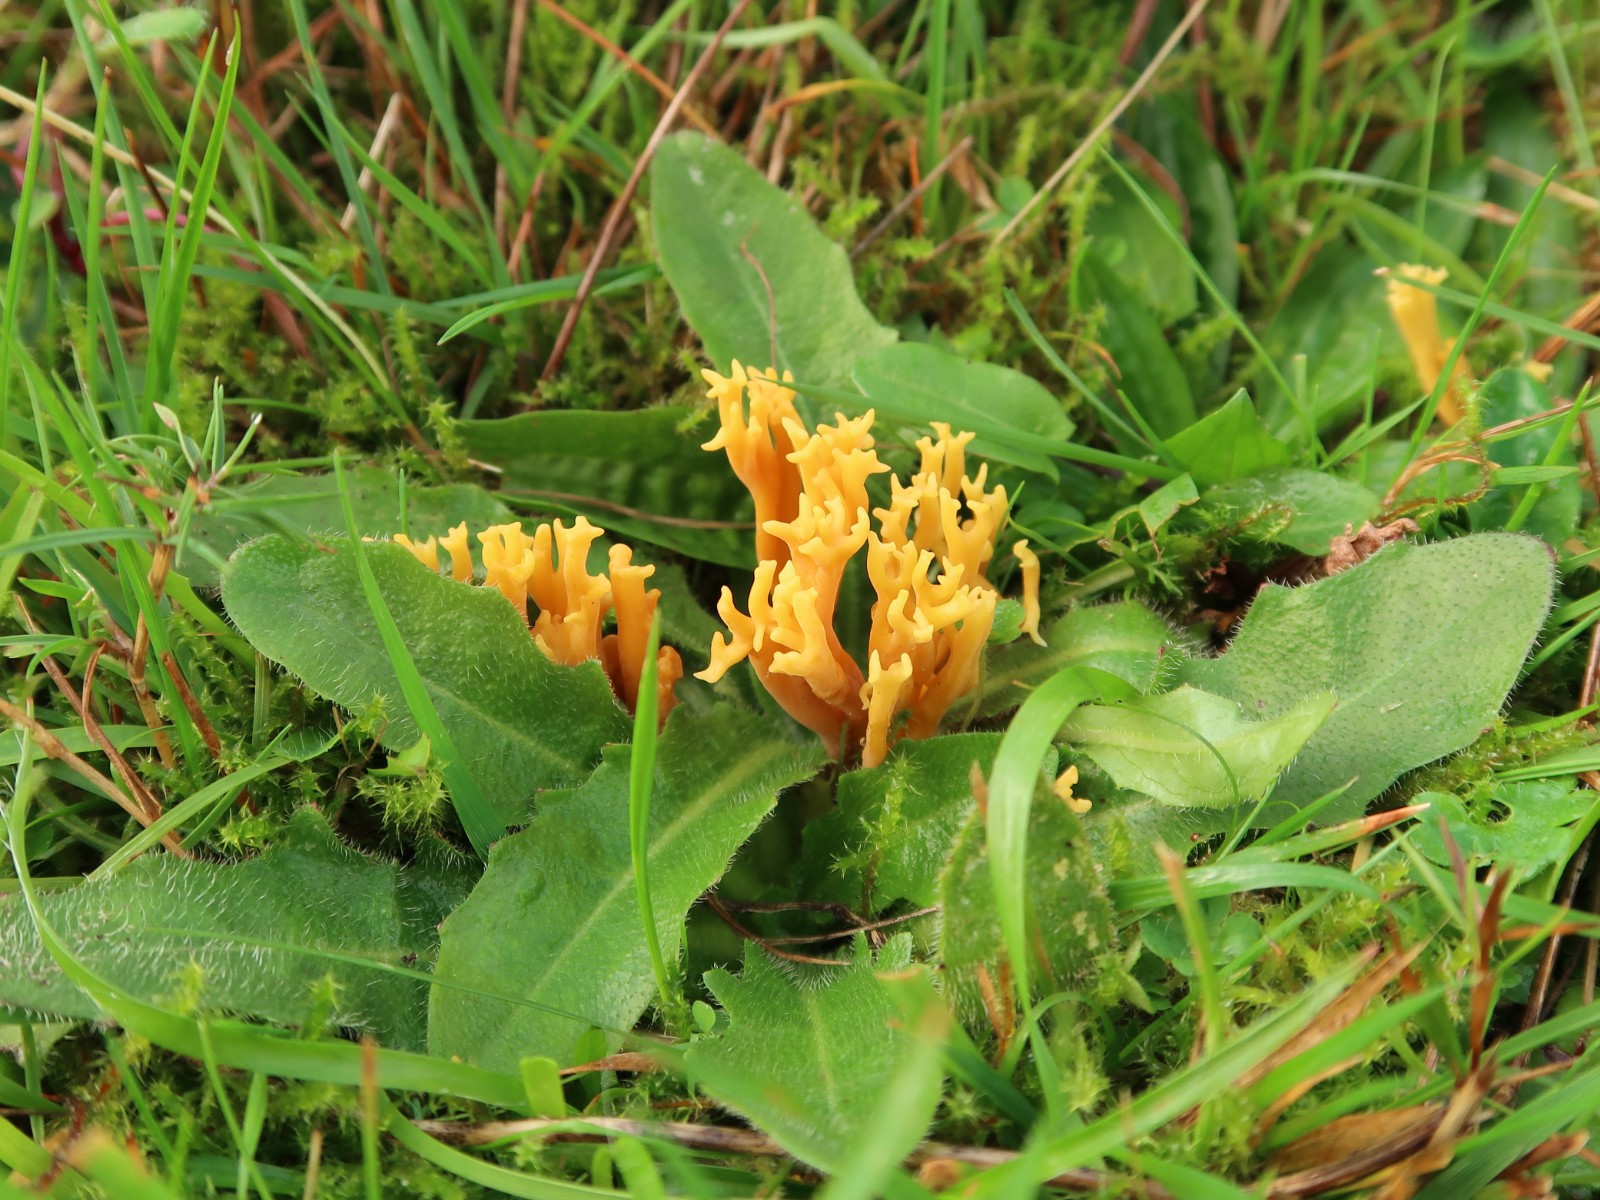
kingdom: Fungi
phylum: Basidiomycota
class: Agaricomycetes
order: Agaricales
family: Clavariaceae
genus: Clavulinopsis
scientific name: Clavulinopsis corniculata
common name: eng-køllesvamp
